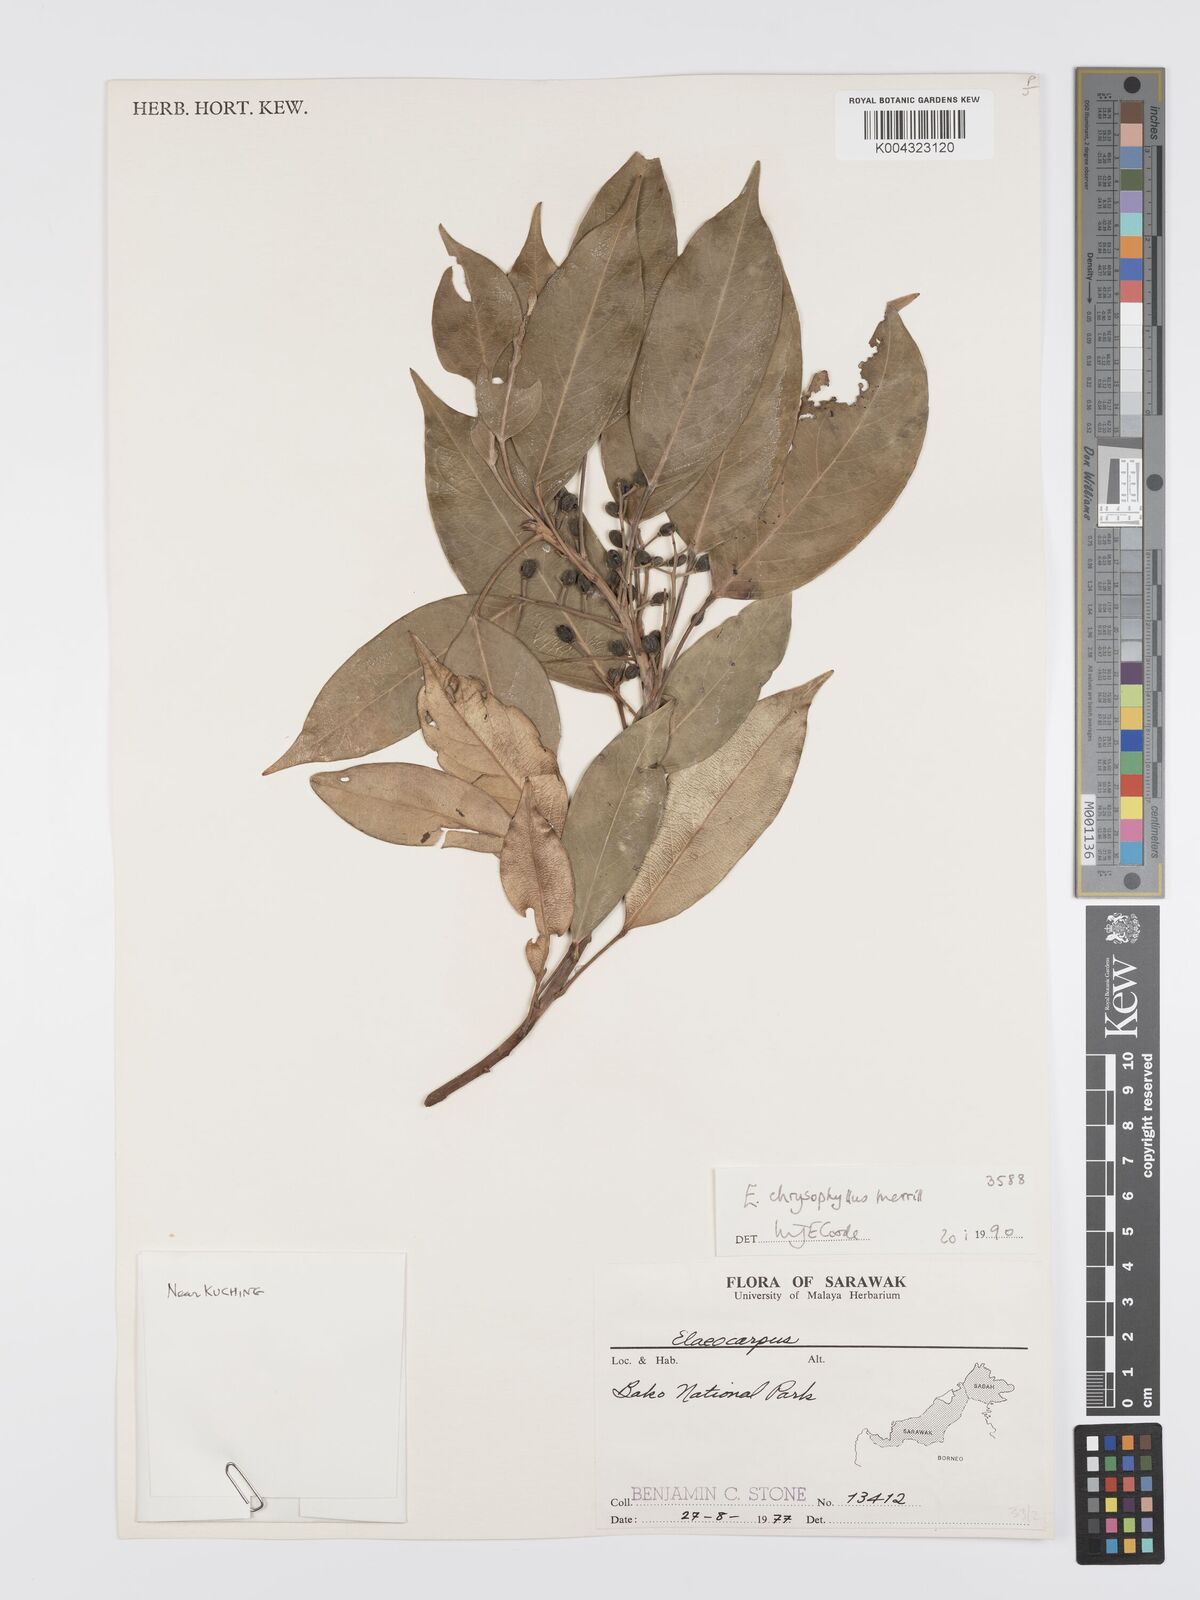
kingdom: Plantae
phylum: Tracheophyta
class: Magnoliopsida
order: Oxalidales
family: Elaeocarpaceae
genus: Elaeocarpus
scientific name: Elaeocarpus chrysophyllus
